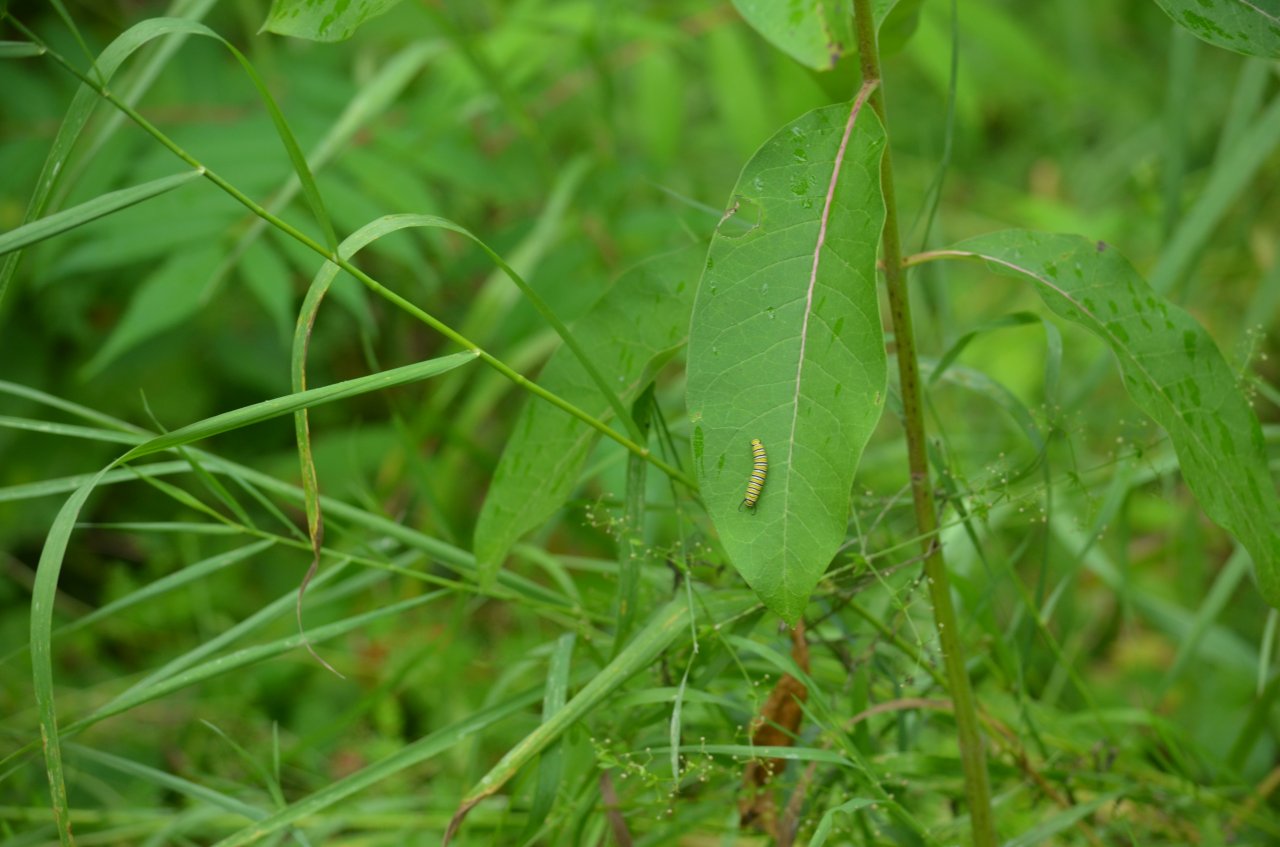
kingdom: Animalia
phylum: Arthropoda
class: Insecta
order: Lepidoptera
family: Nymphalidae
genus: Danaus
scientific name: Danaus plexippus
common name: Monarch
